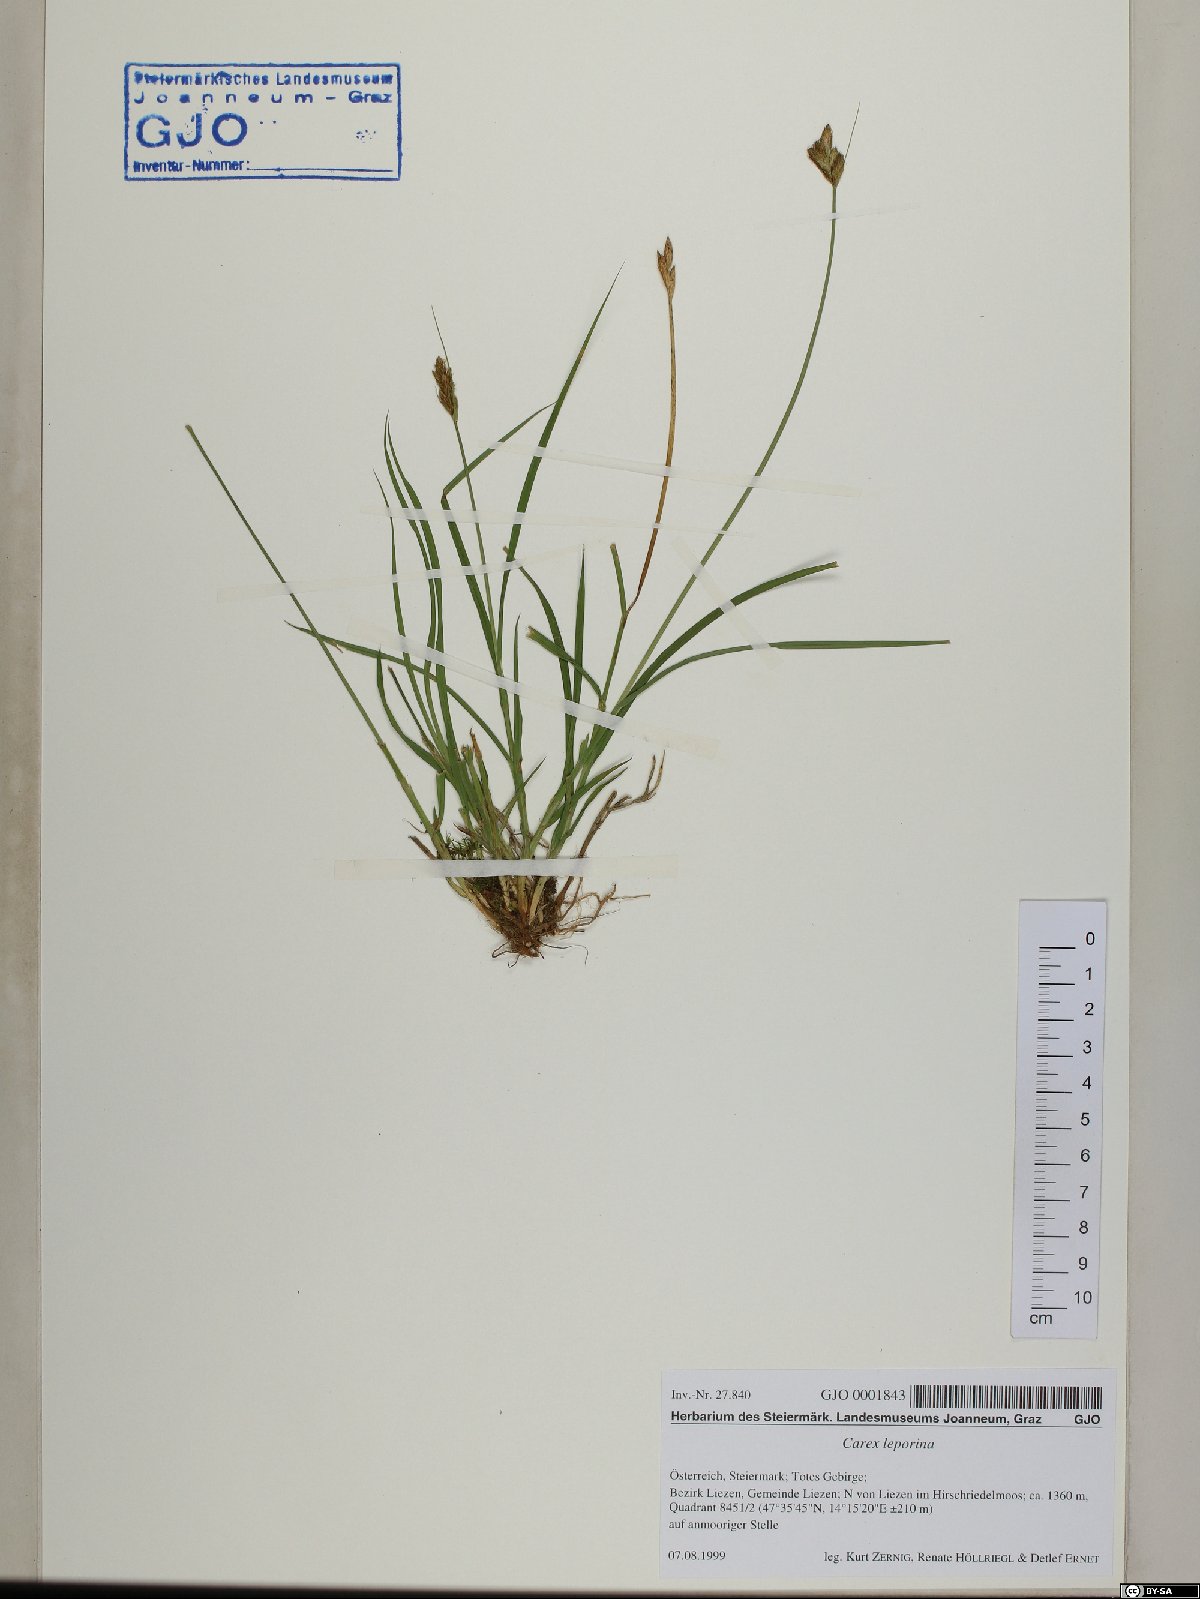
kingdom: Plantae
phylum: Tracheophyta
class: Liliopsida
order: Poales
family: Cyperaceae
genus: Carex
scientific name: Carex leporina
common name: Oval sedge
